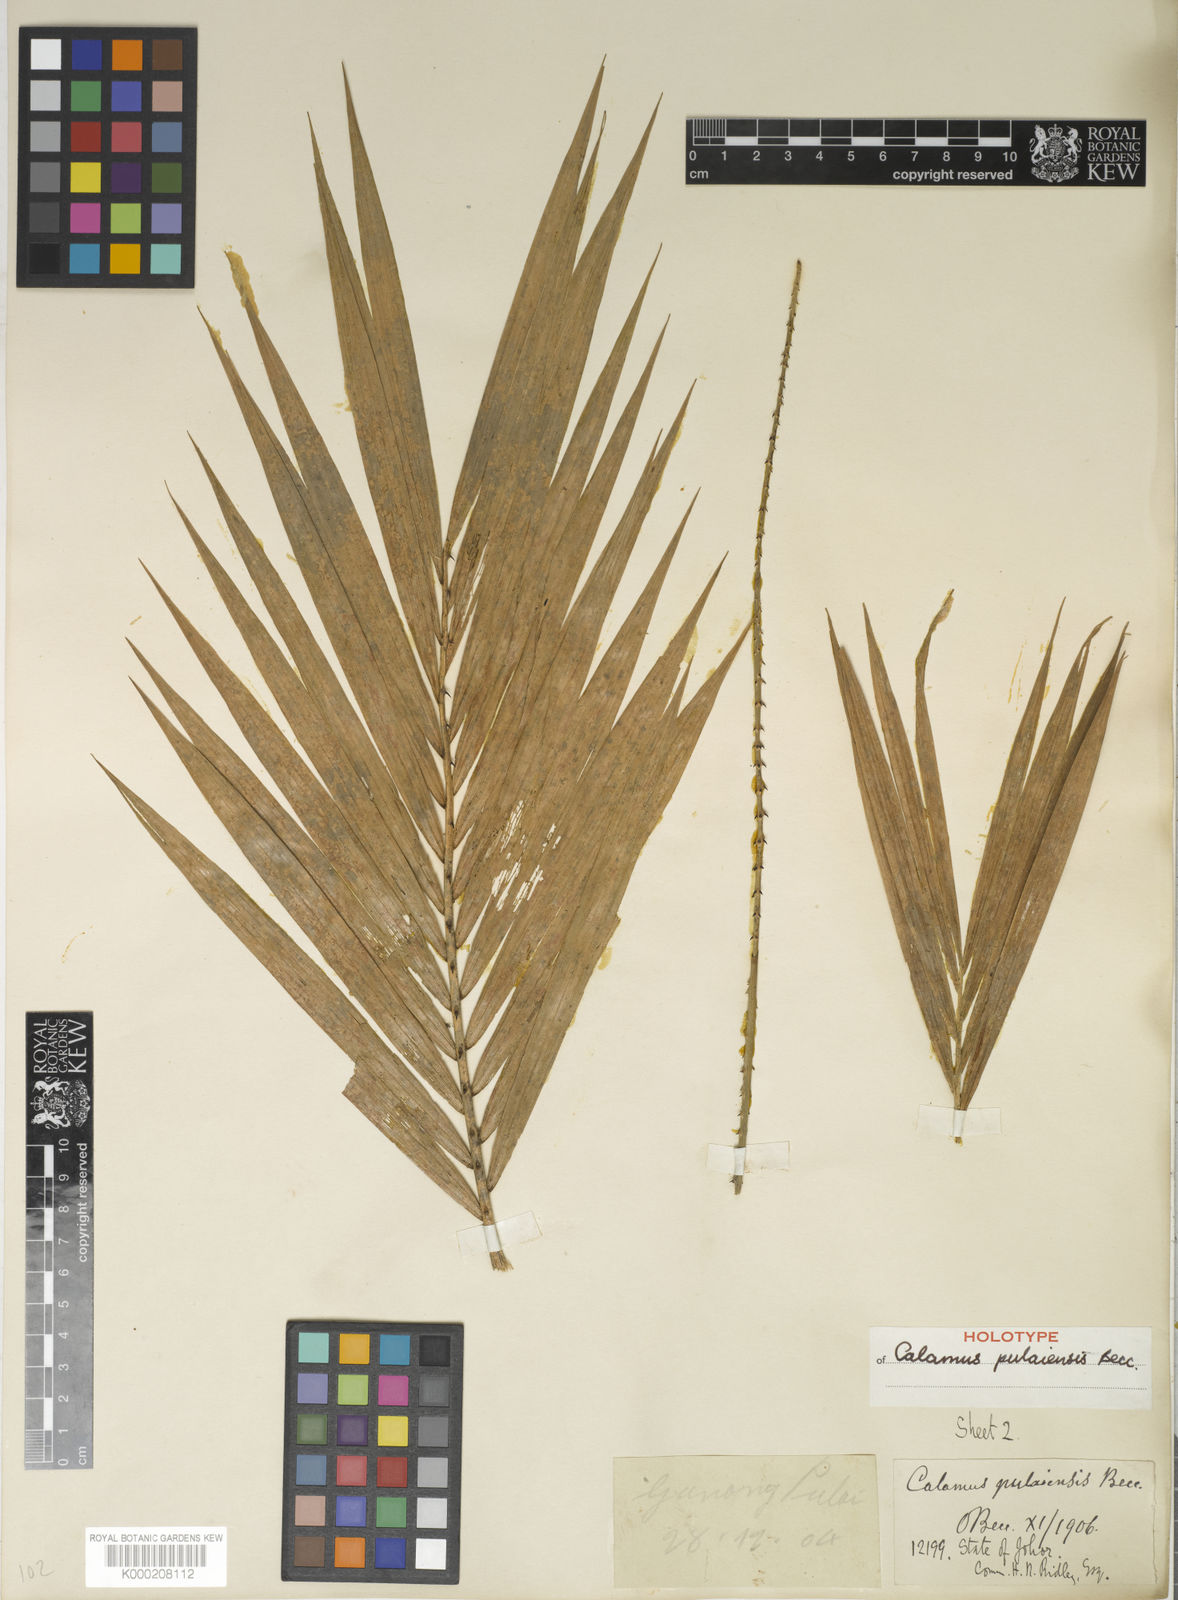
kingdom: Plantae
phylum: Tracheophyta
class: Liliopsida
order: Arecales
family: Arecaceae
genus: Calamus
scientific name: Calamus exilis
